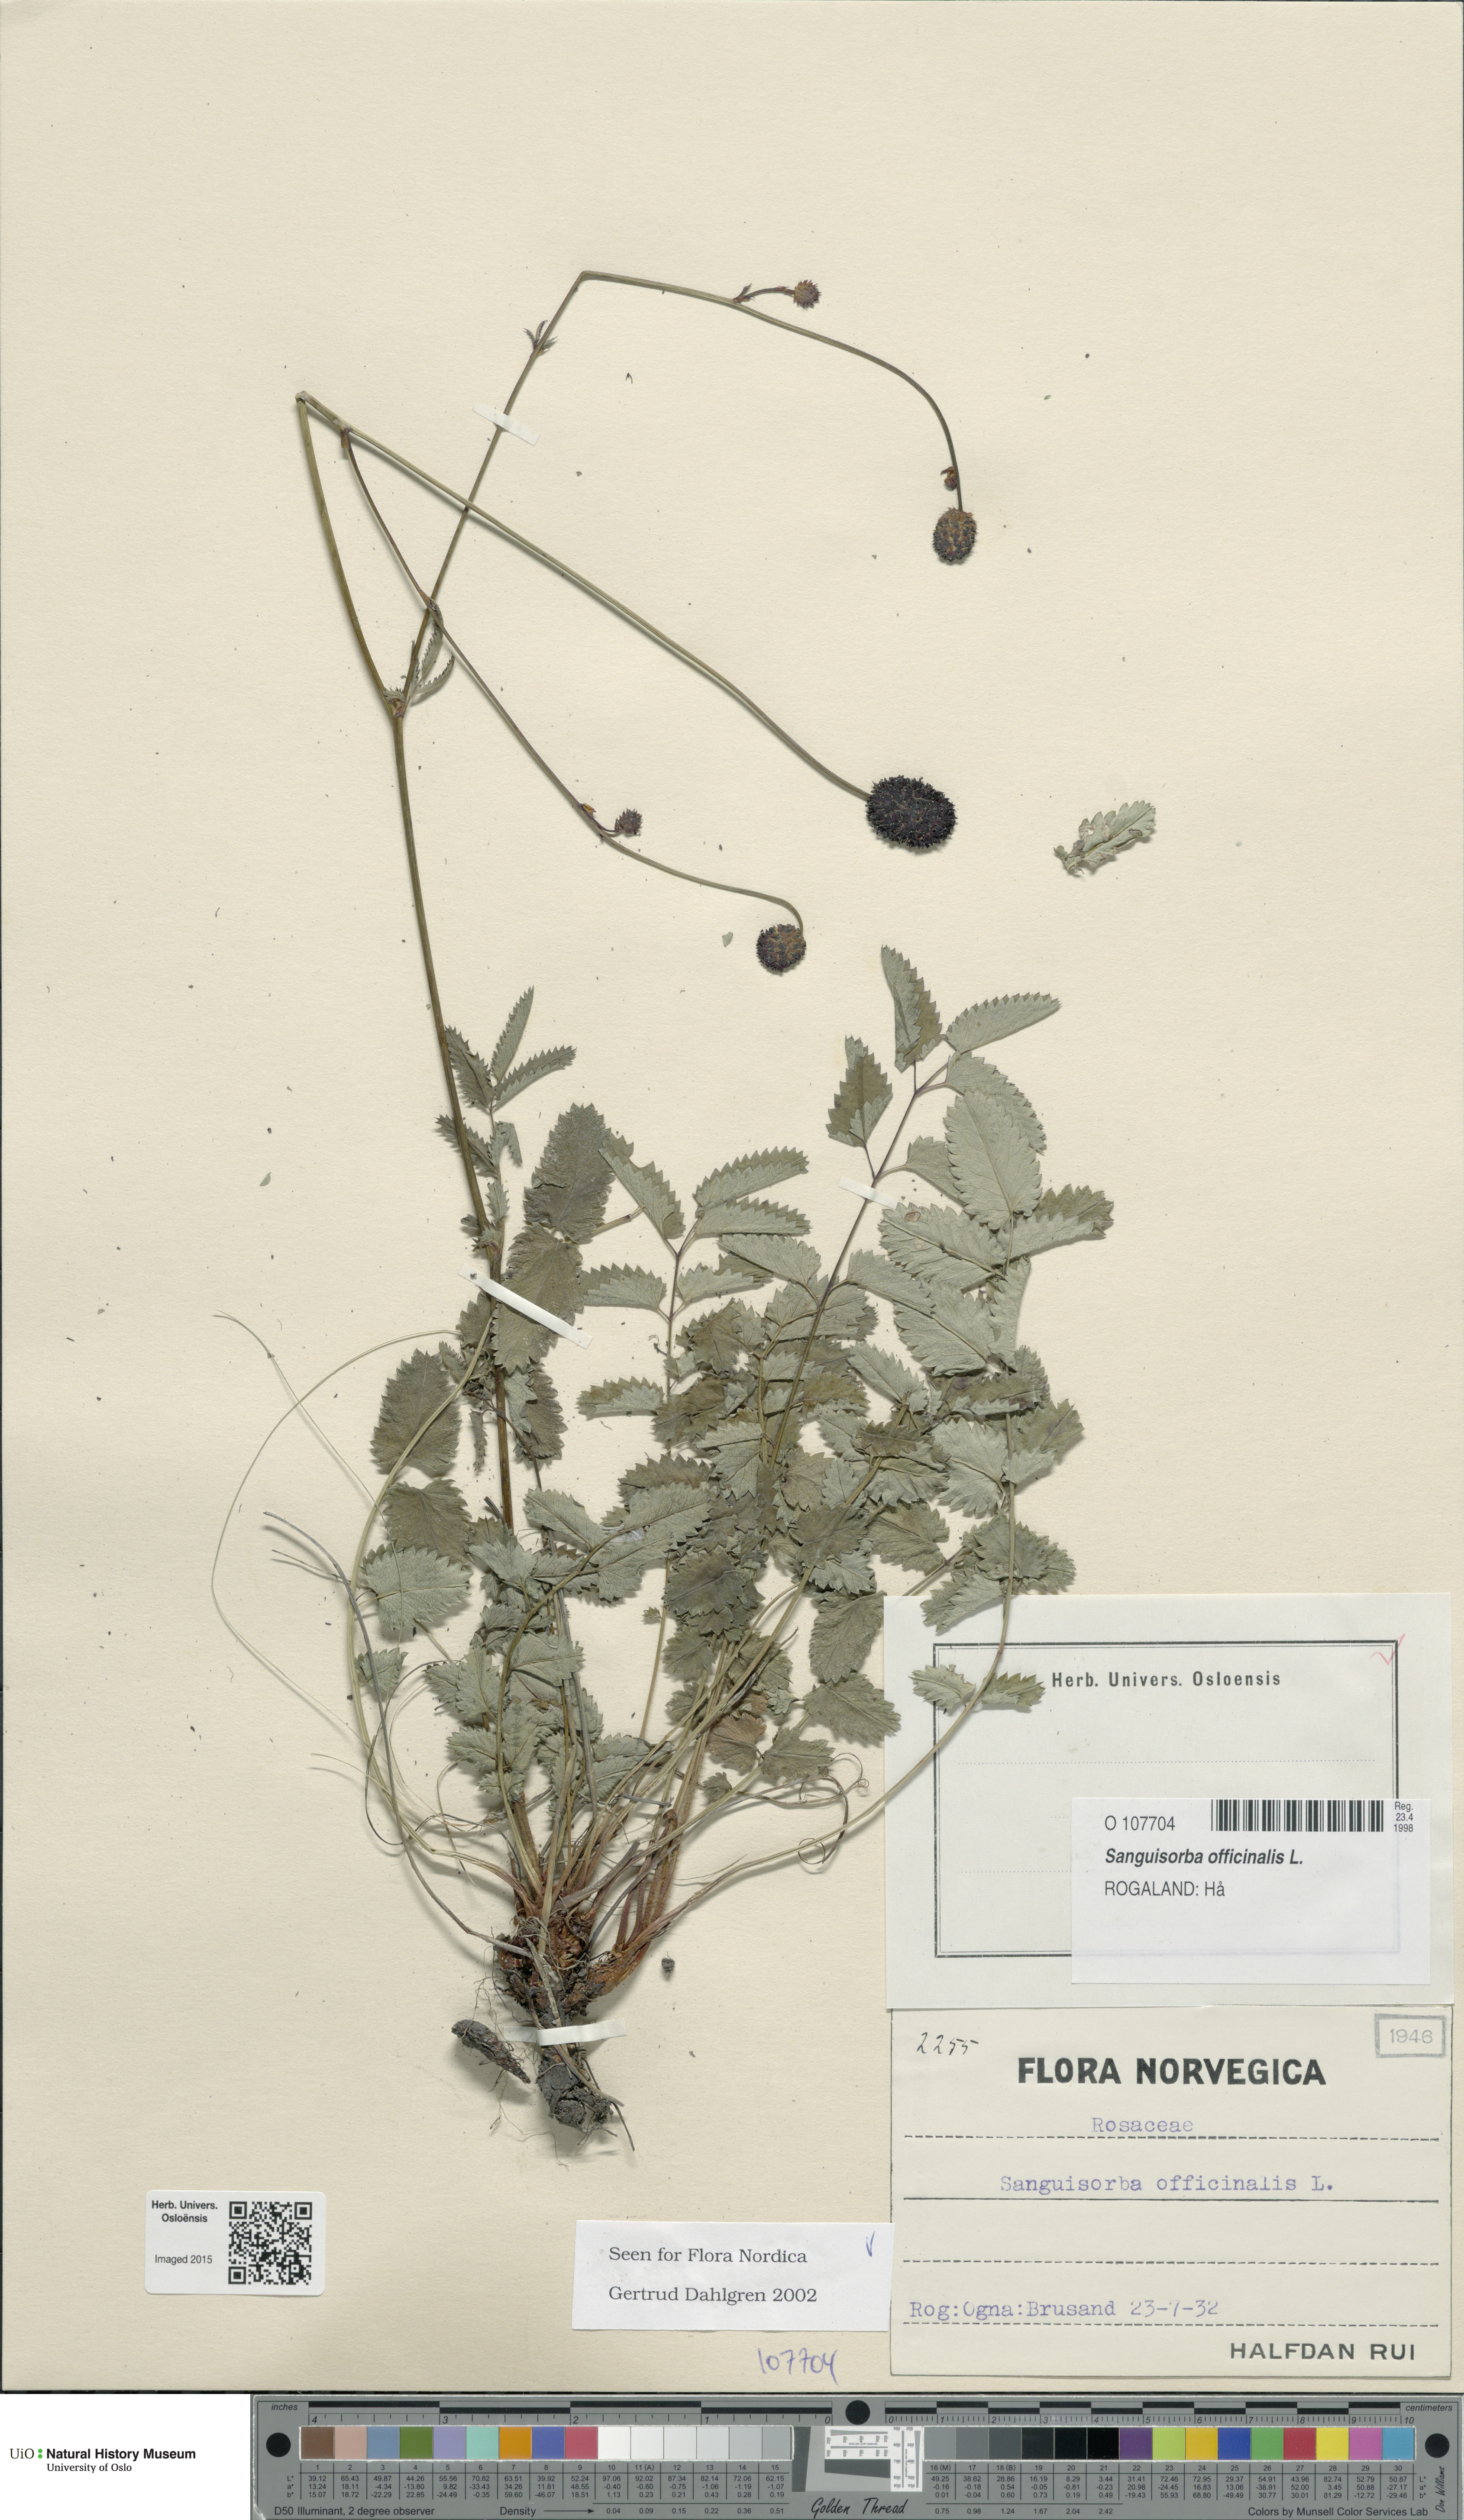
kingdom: Plantae
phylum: Tracheophyta
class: Magnoliopsida
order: Rosales
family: Rosaceae
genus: Sanguisorba
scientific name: Sanguisorba officinalis
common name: Great burnet
